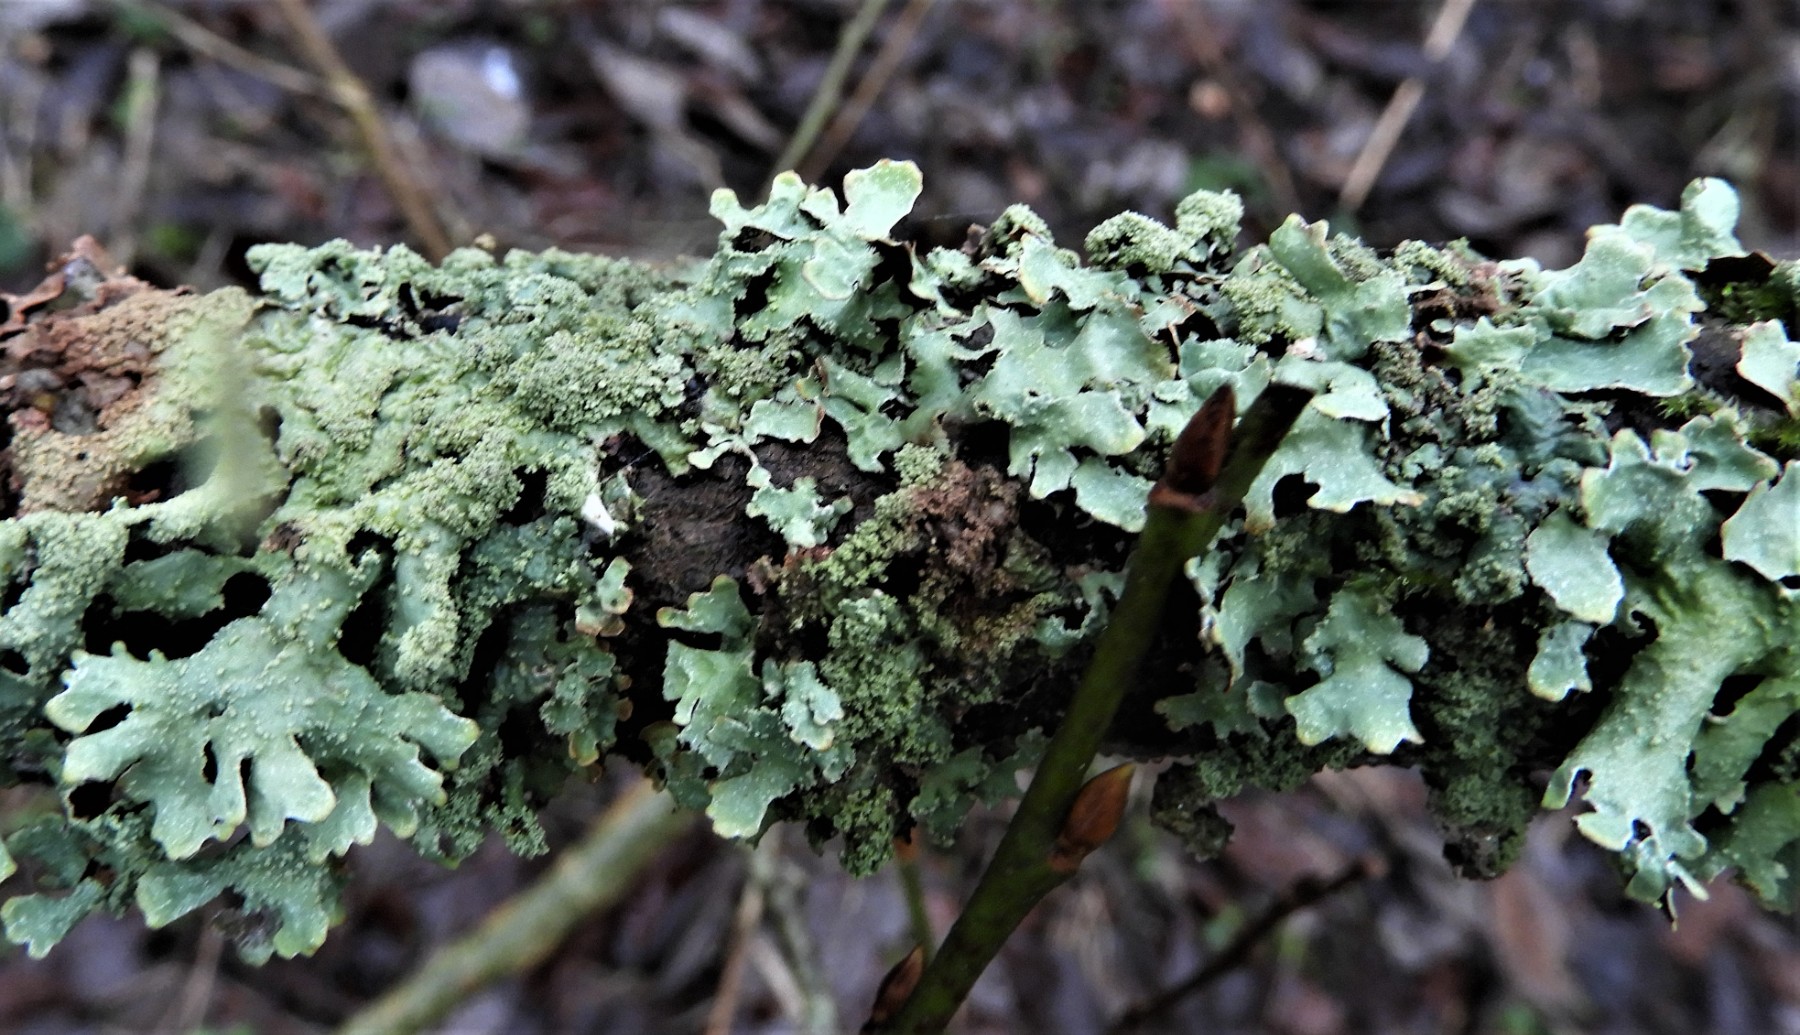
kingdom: Fungi
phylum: Ascomycota
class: Lecanoromycetes
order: Lecanorales
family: Parmeliaceae
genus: Parmelia
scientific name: Parmelia submontana
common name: langlobet skållav
